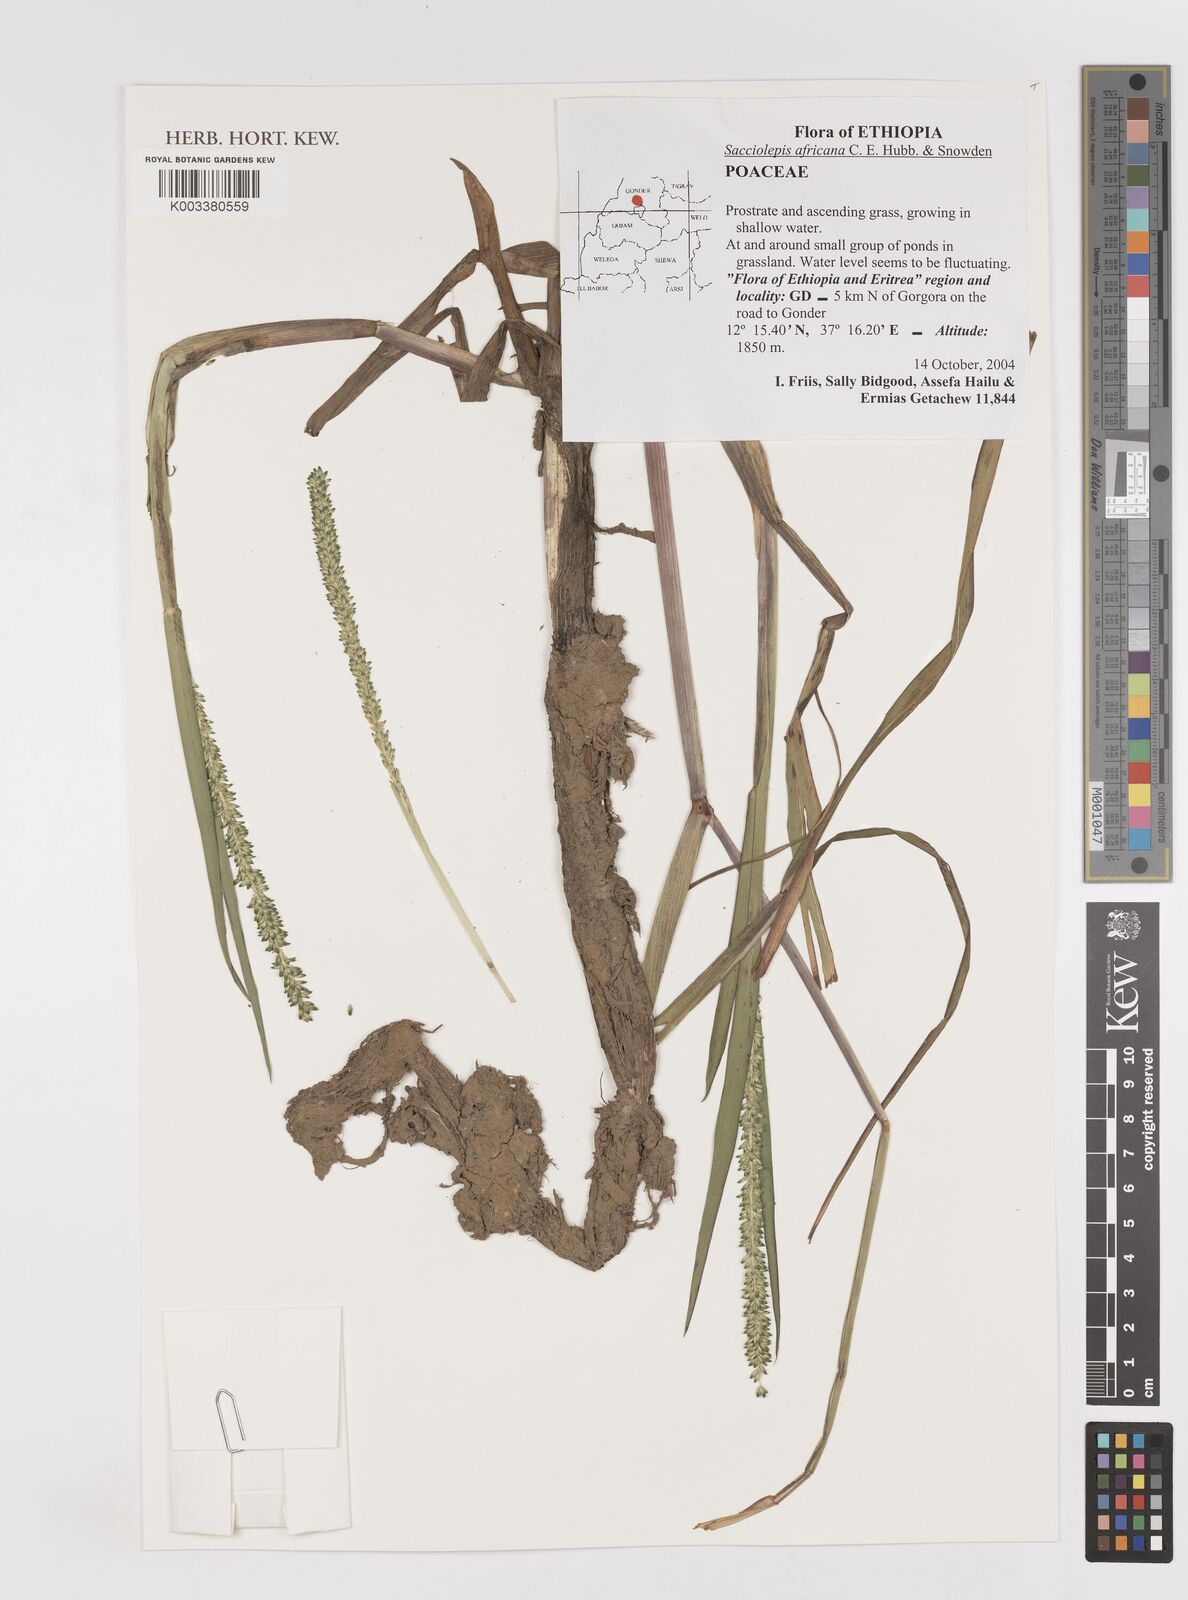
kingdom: Plantae
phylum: Tracheophyta
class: Liliopsida
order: Poales
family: Poaceae
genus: Sacciolepis
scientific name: Sacciolepis africana
